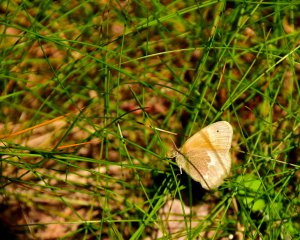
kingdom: Animalia
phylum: Arthropoda
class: Insecta
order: Lepidoptera
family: Nymphalidae
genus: Coenonympha
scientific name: Coenonympha tullia
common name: Large Heath
